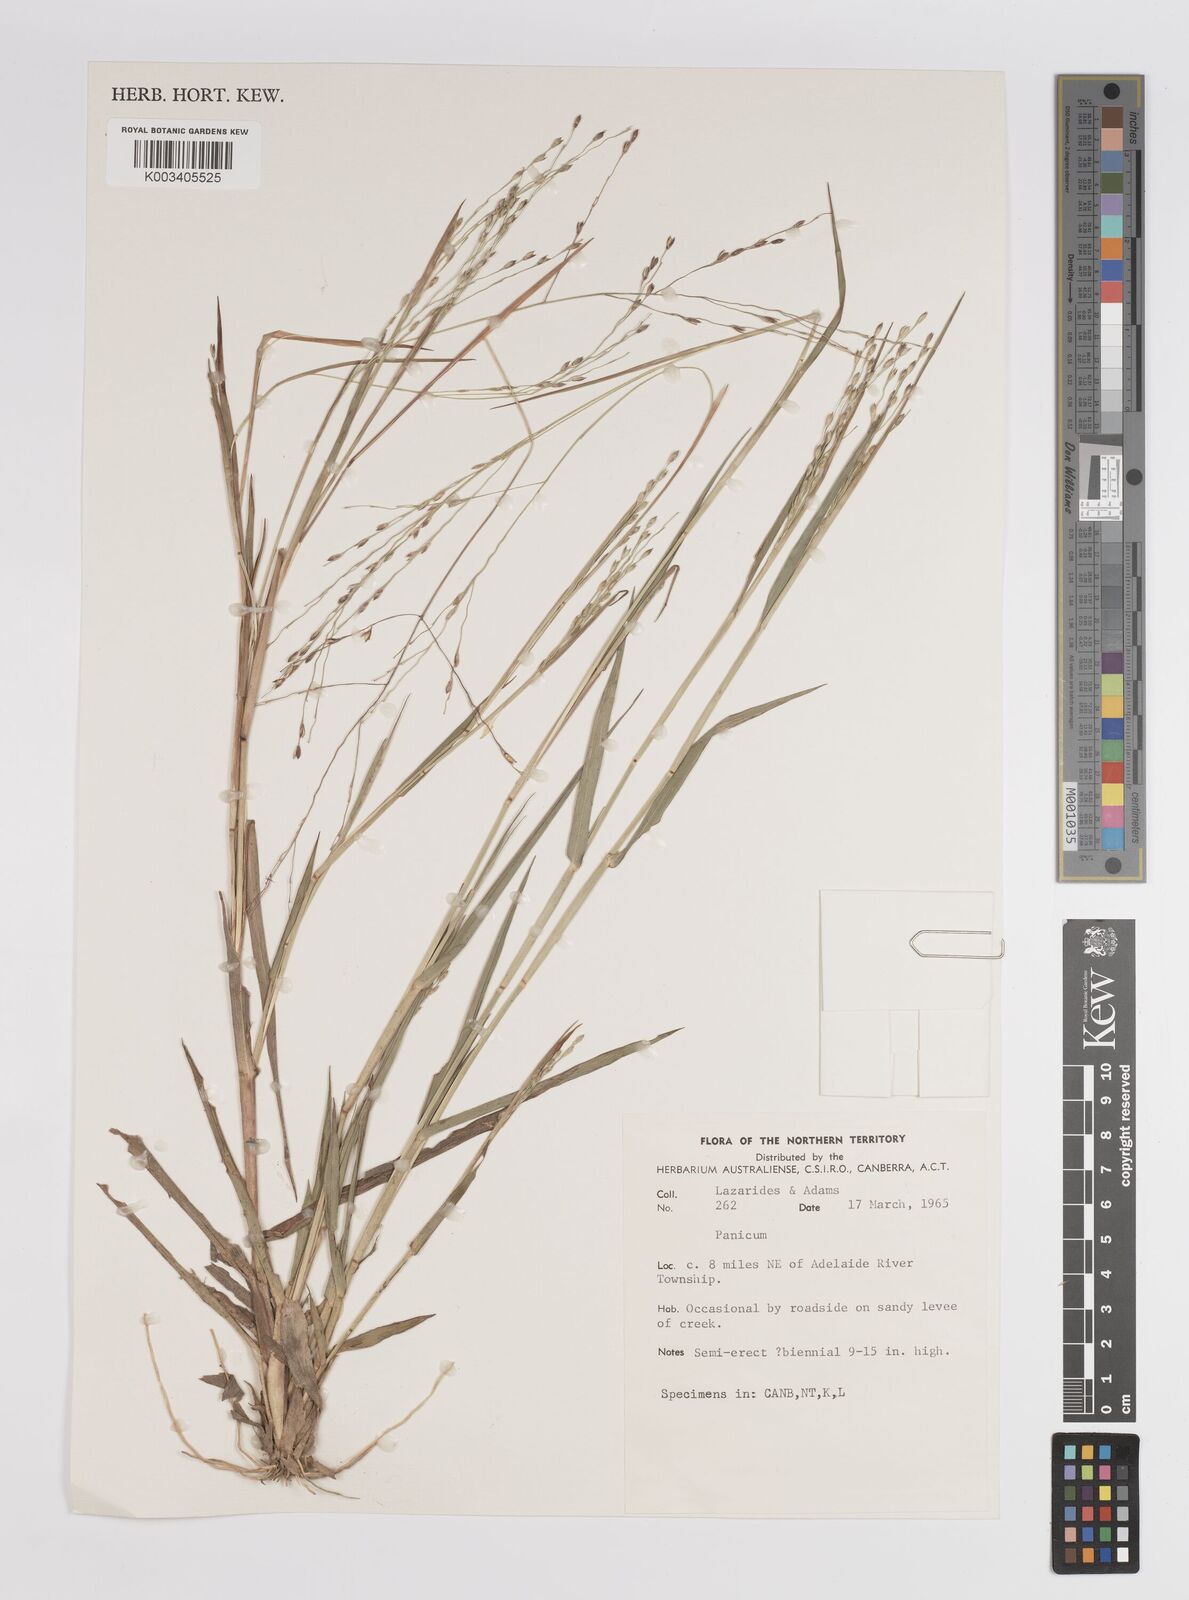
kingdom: Plantae
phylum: Tracheophyta
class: Liliopsida
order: Poales
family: Poaceae
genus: Panicum
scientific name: Panicum
